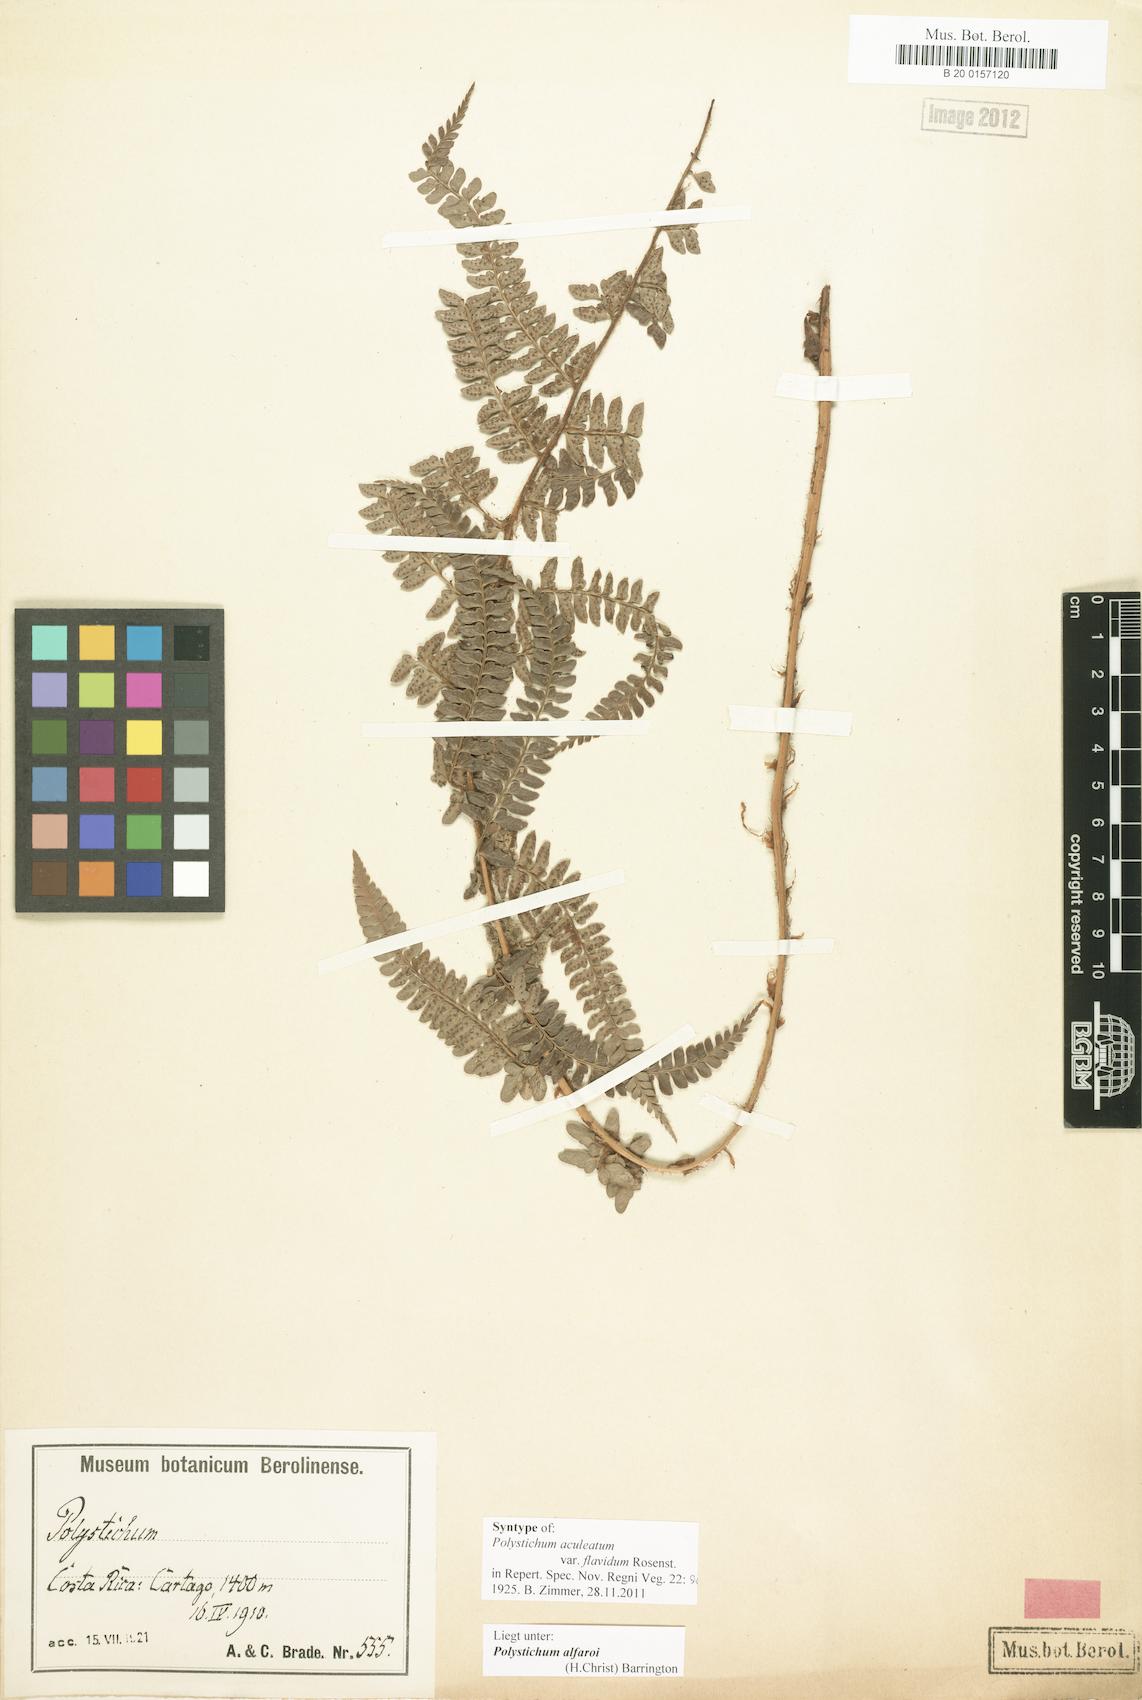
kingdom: Plantae
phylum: Tracheophyta
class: Polypodiopsida
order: Polypodiales
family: Dryopteridaceae
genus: Polystichum
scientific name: Polystichum alfaroi
